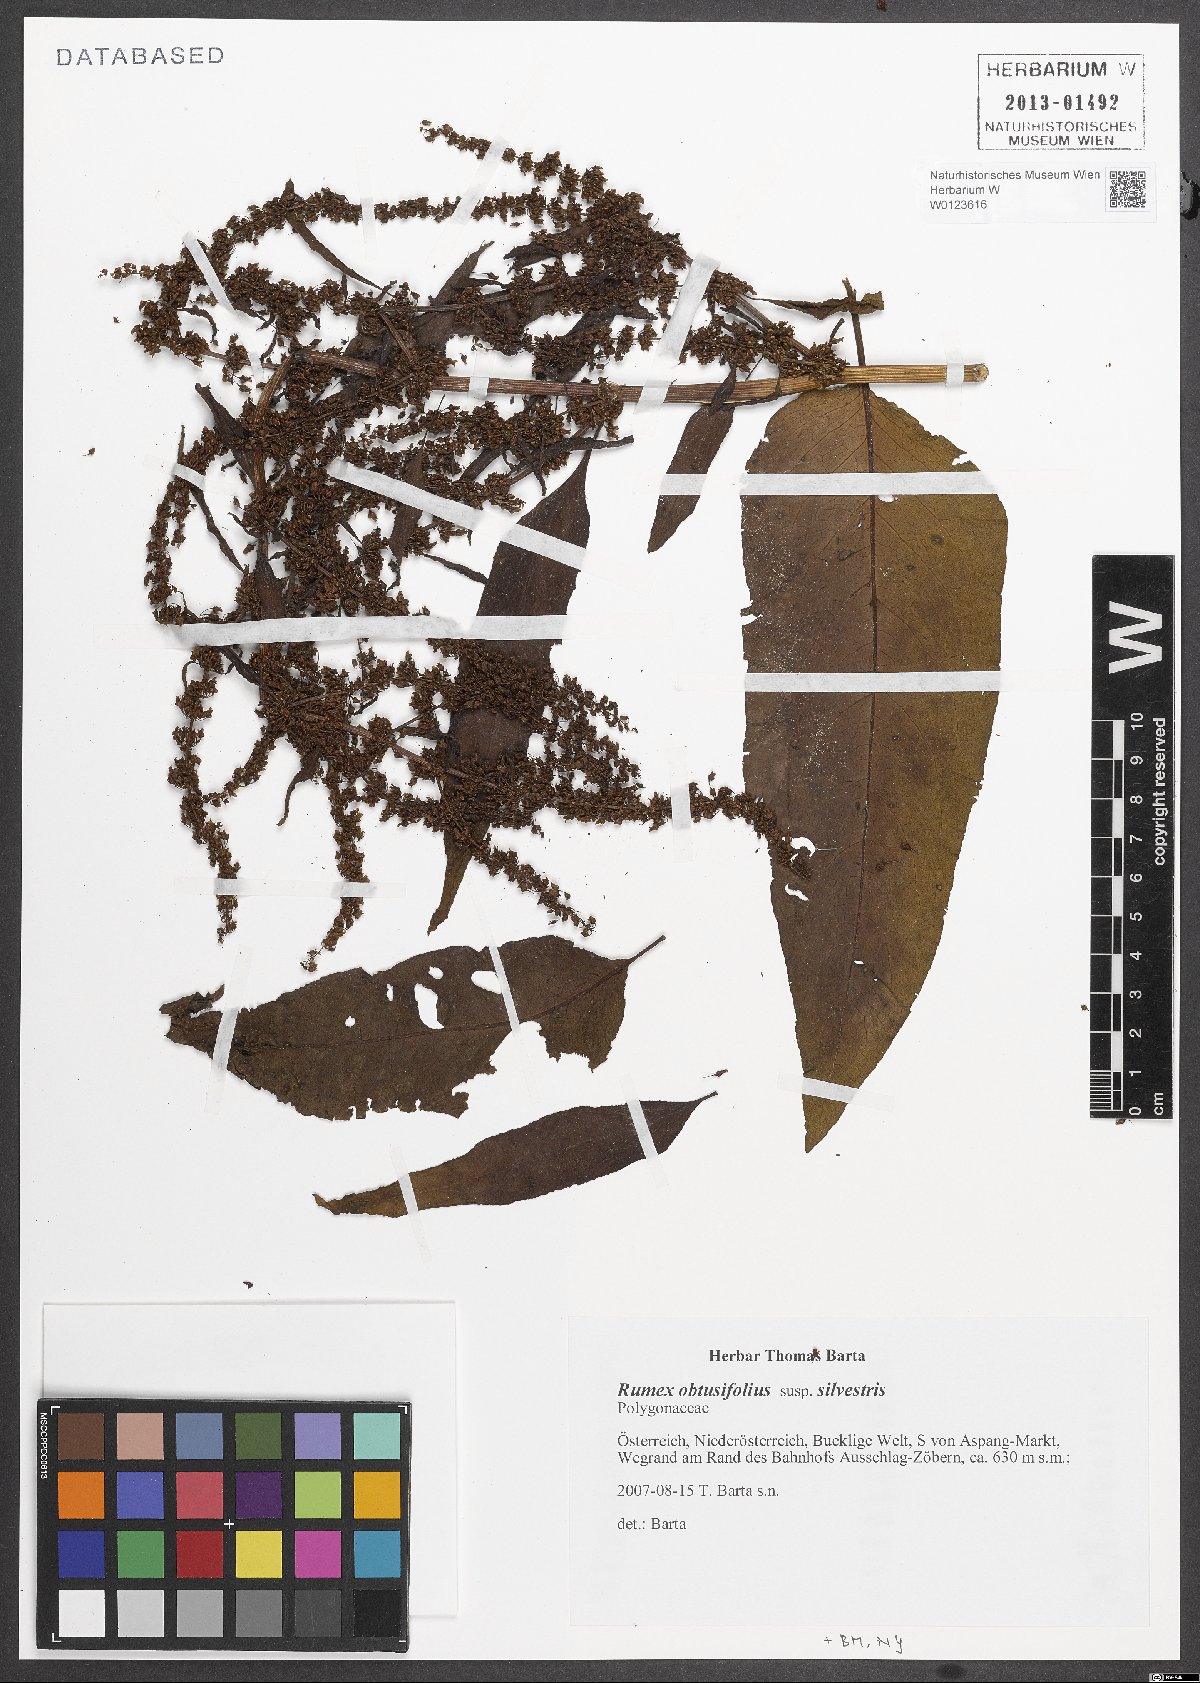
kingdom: Plantae
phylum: Tracheophyta
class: Magnoliopsida
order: Caryophyllales
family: Polygonaceae
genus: Rumex
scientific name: Rumex obtusifolius
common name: Bitter dock
